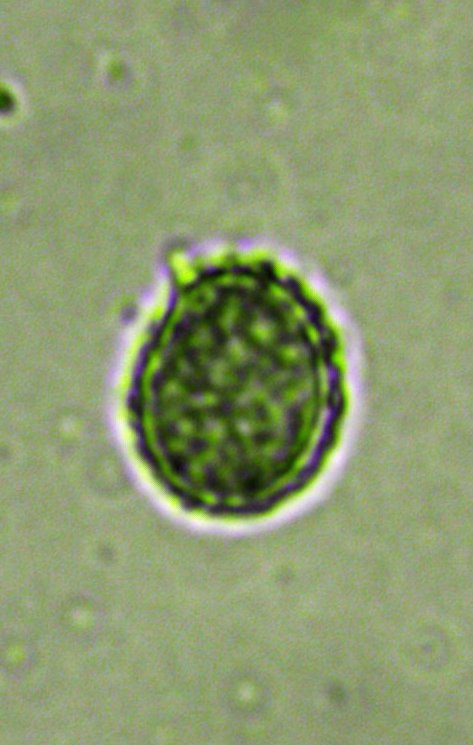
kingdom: Fungi
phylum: Basidiomycota
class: Agaricomycetes
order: Russulales
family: Russulaceae
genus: Russula
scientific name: Russula graveolens
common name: bugtet skørhat
